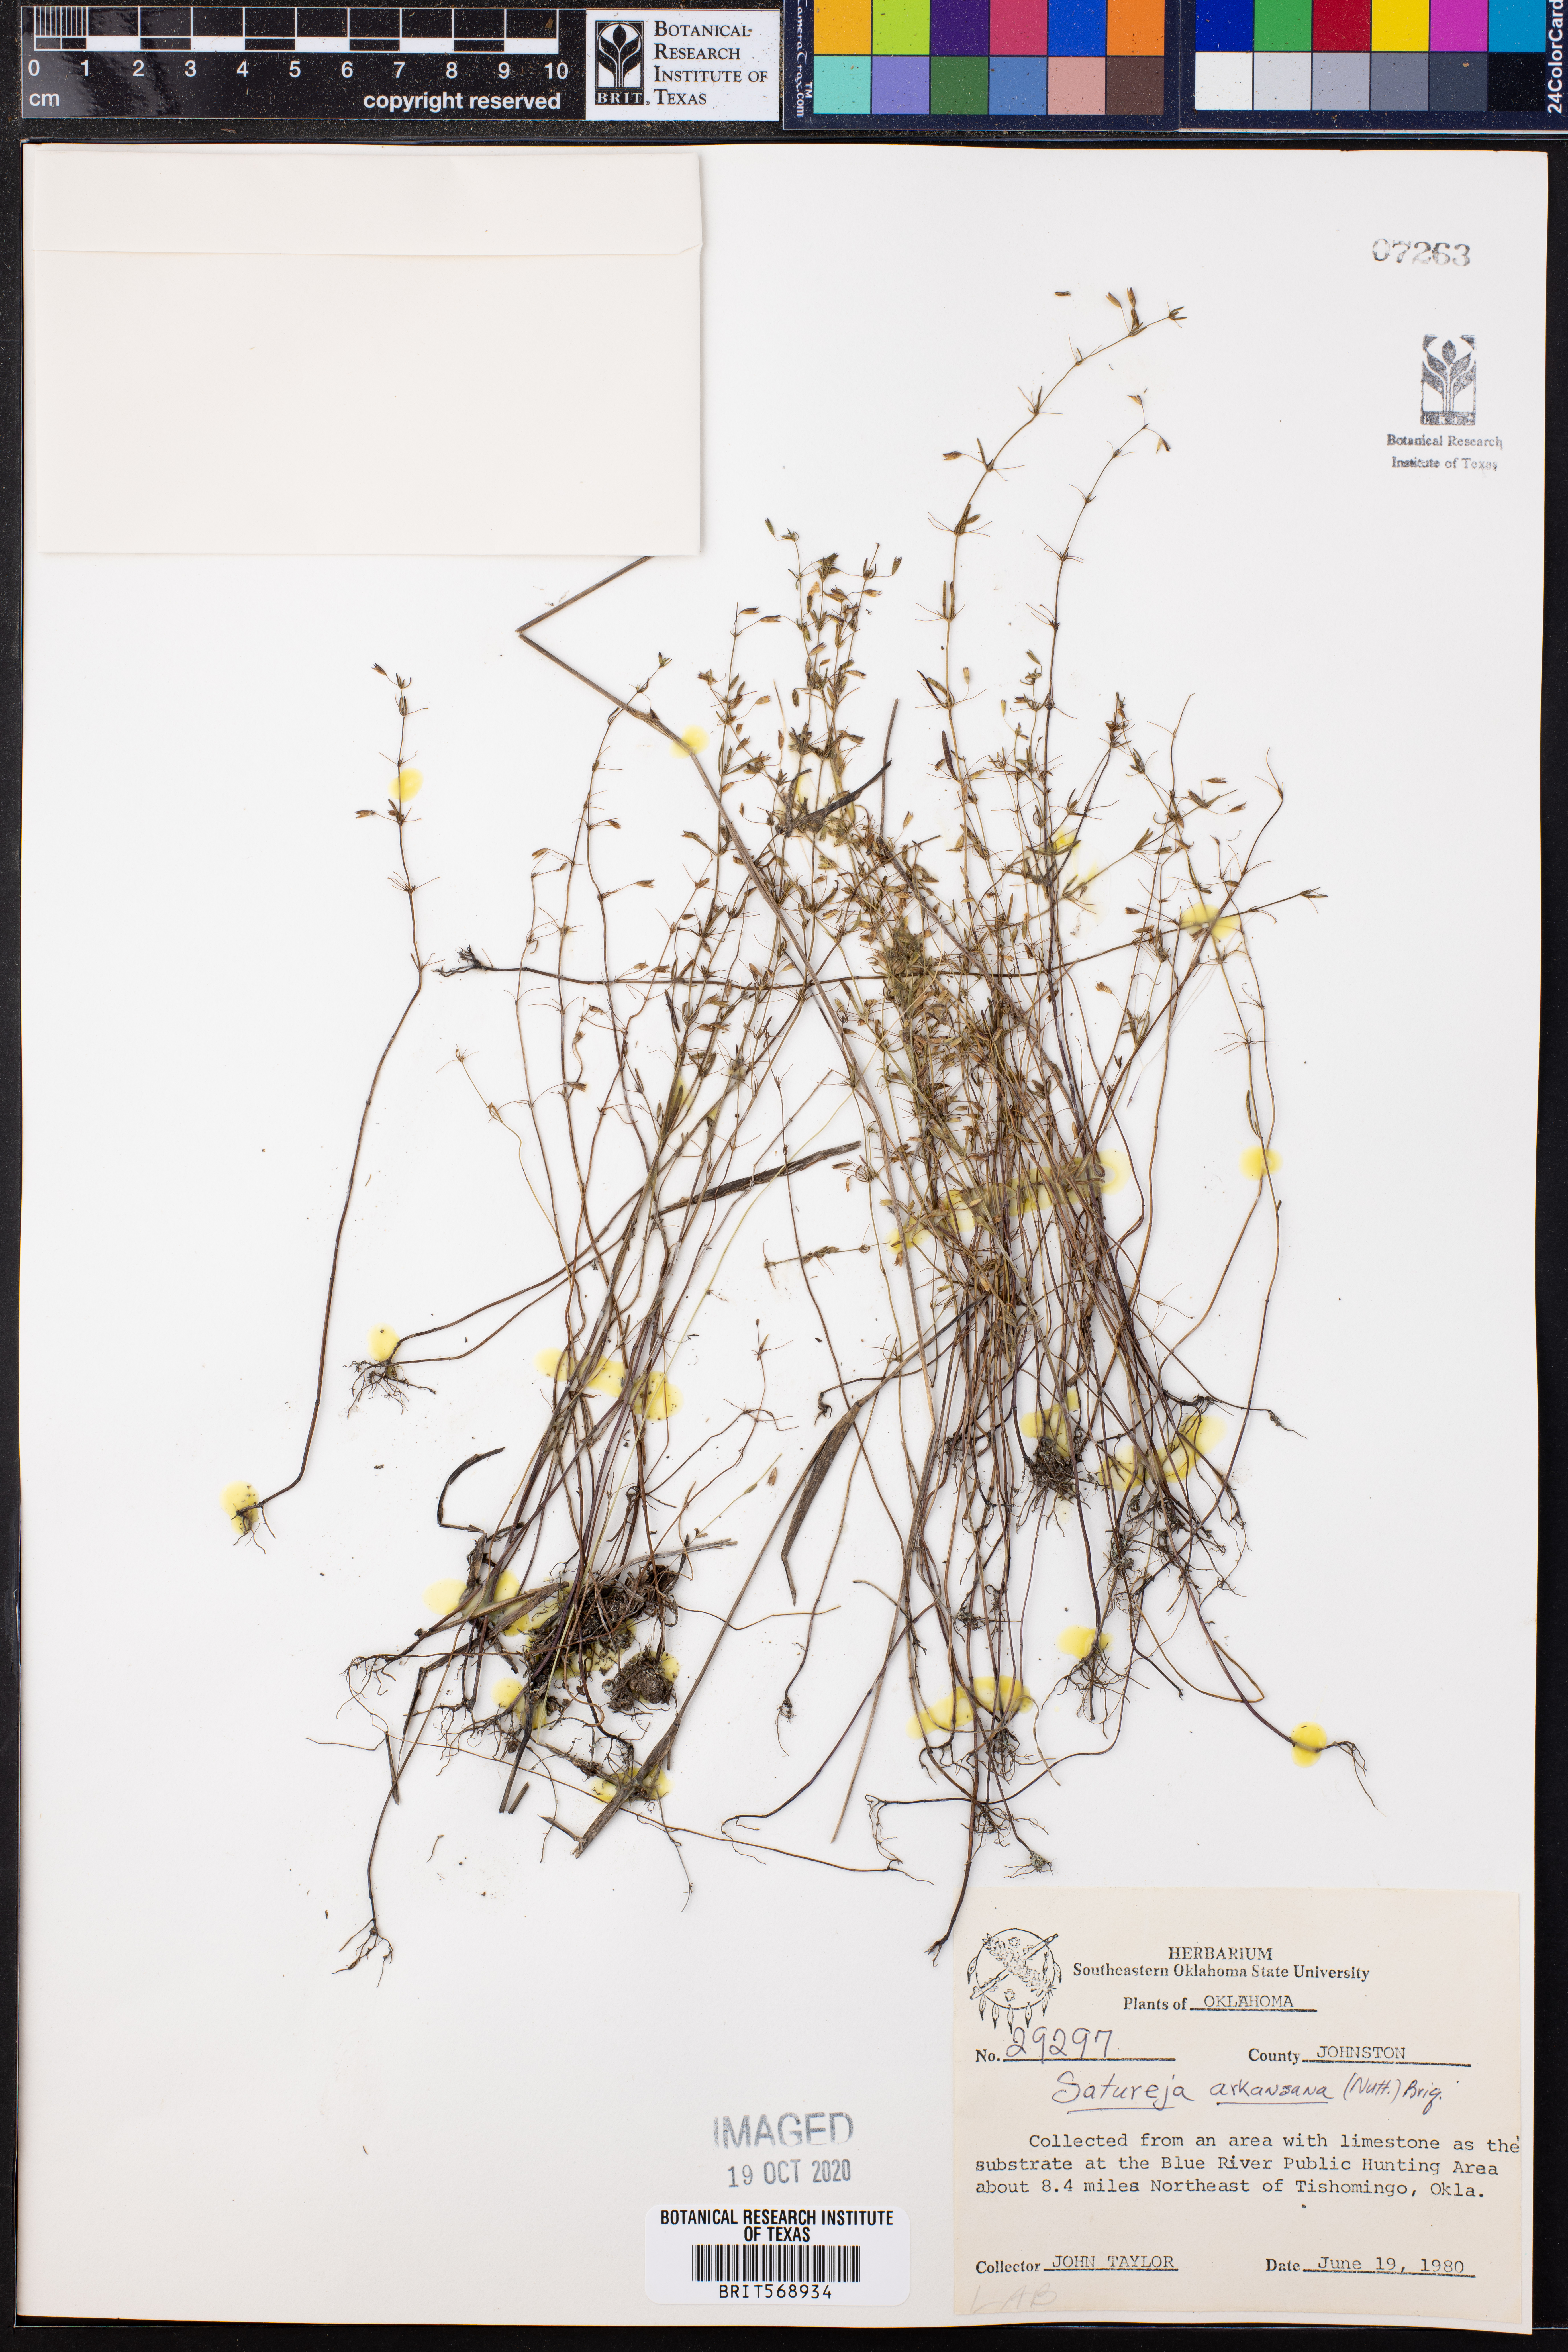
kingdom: Plantae
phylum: Tracheophyta
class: Magnoliopsida
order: Lamiales
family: Lamiaceae
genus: Clinopodium
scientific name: Clinopodium arkansanum
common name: Limestone calamint
